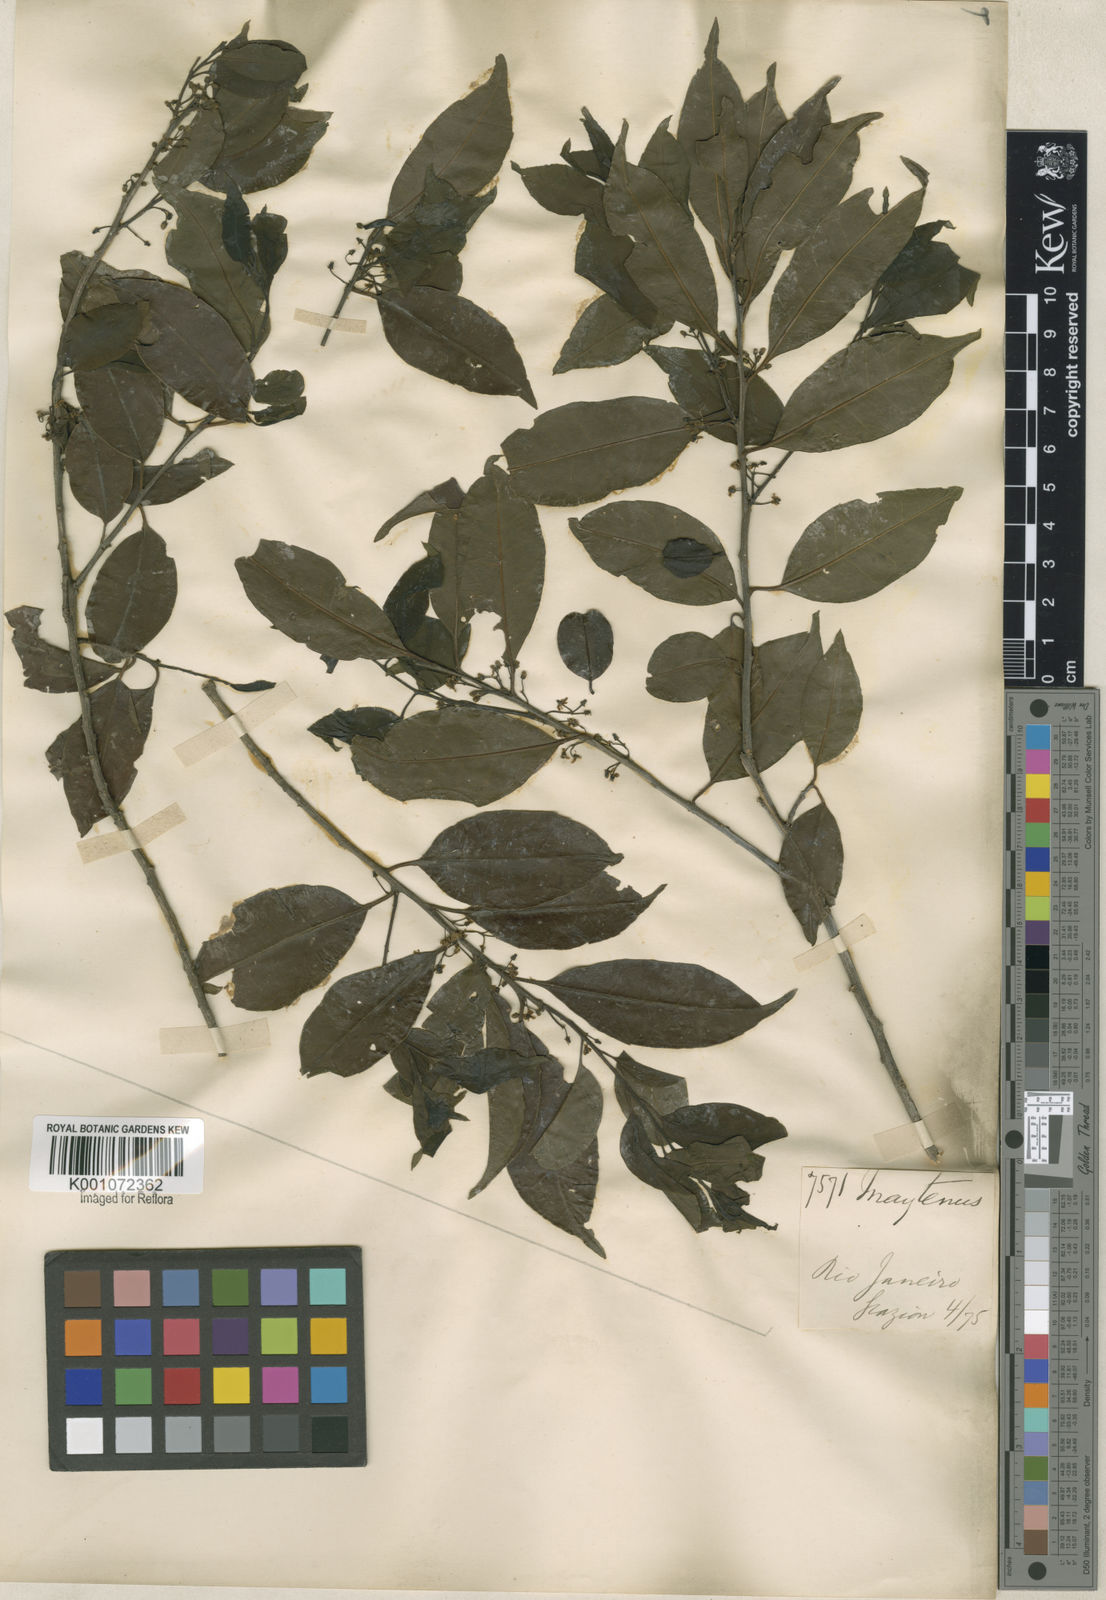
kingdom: Plantae
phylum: Tracheophyta
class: Magnoliopsida
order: Celastrales
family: Celastraceae
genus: Maytenus
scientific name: Maytenus
